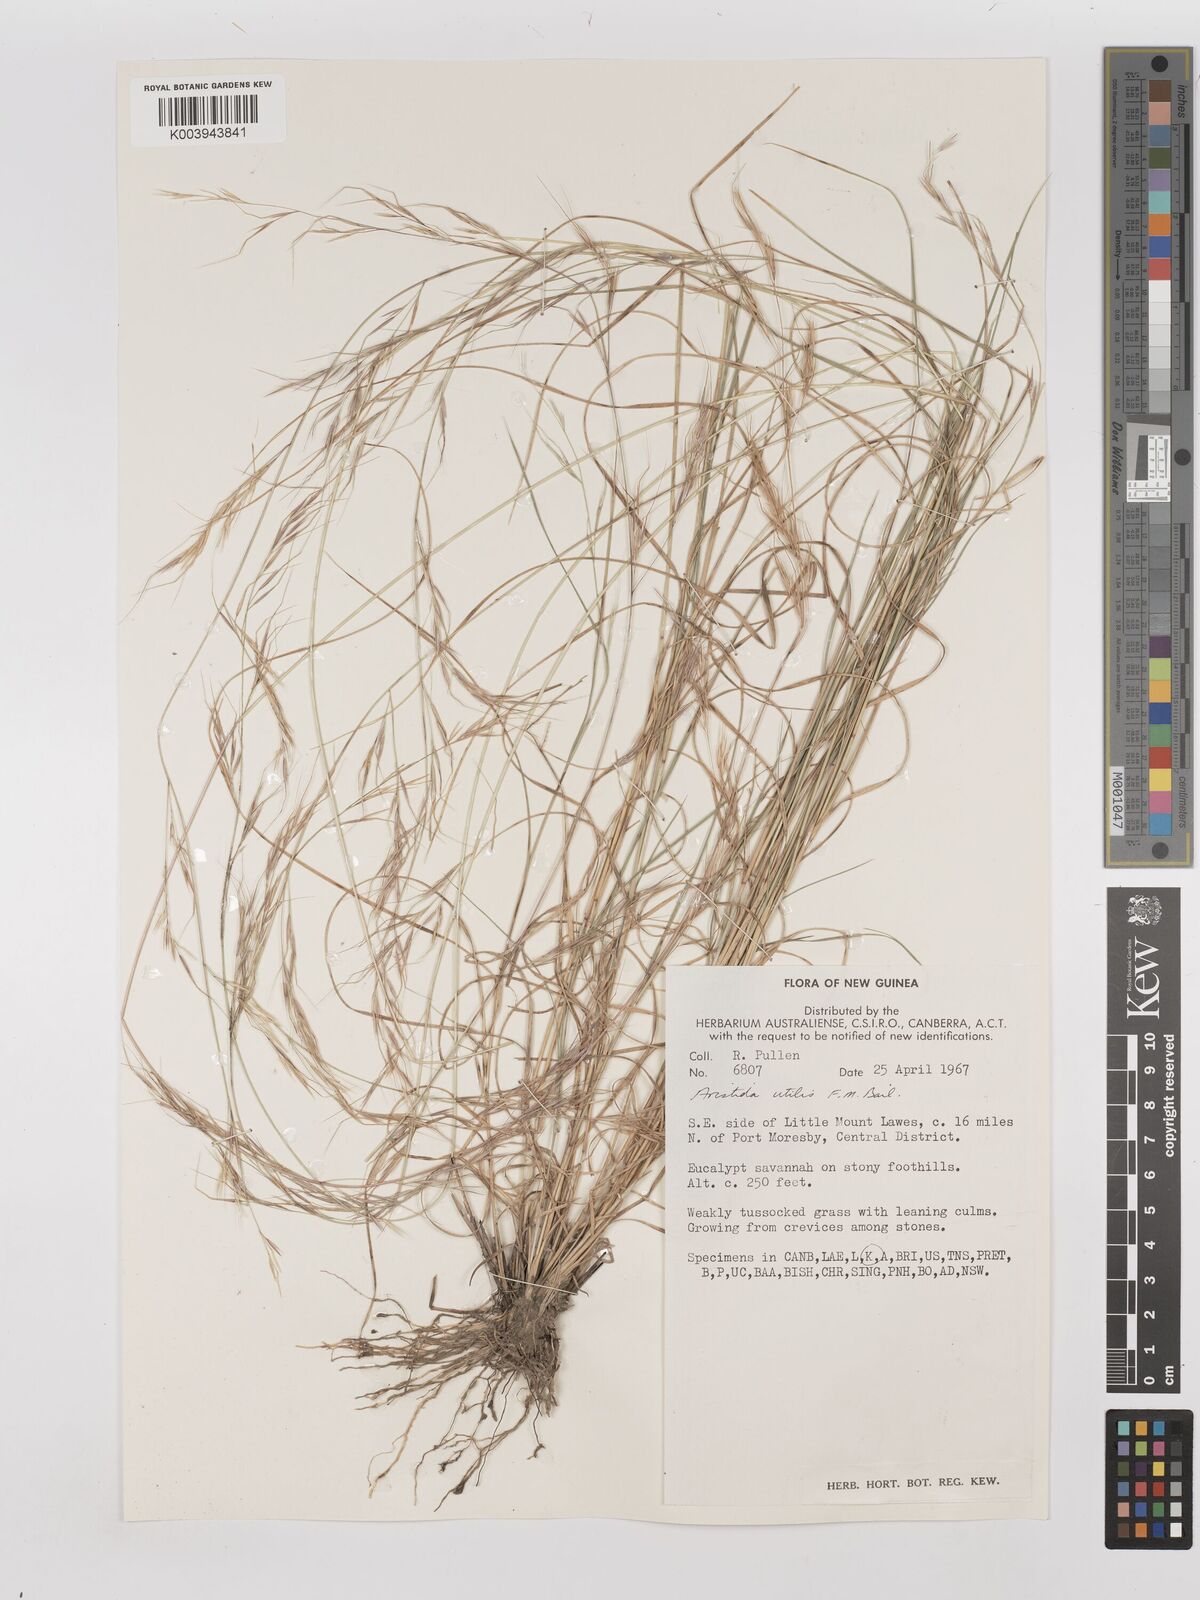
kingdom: Plantae
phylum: Tracheophyta
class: Liliopsida
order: Poales
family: Poaceae
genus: Aristida
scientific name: Aristida utilis
